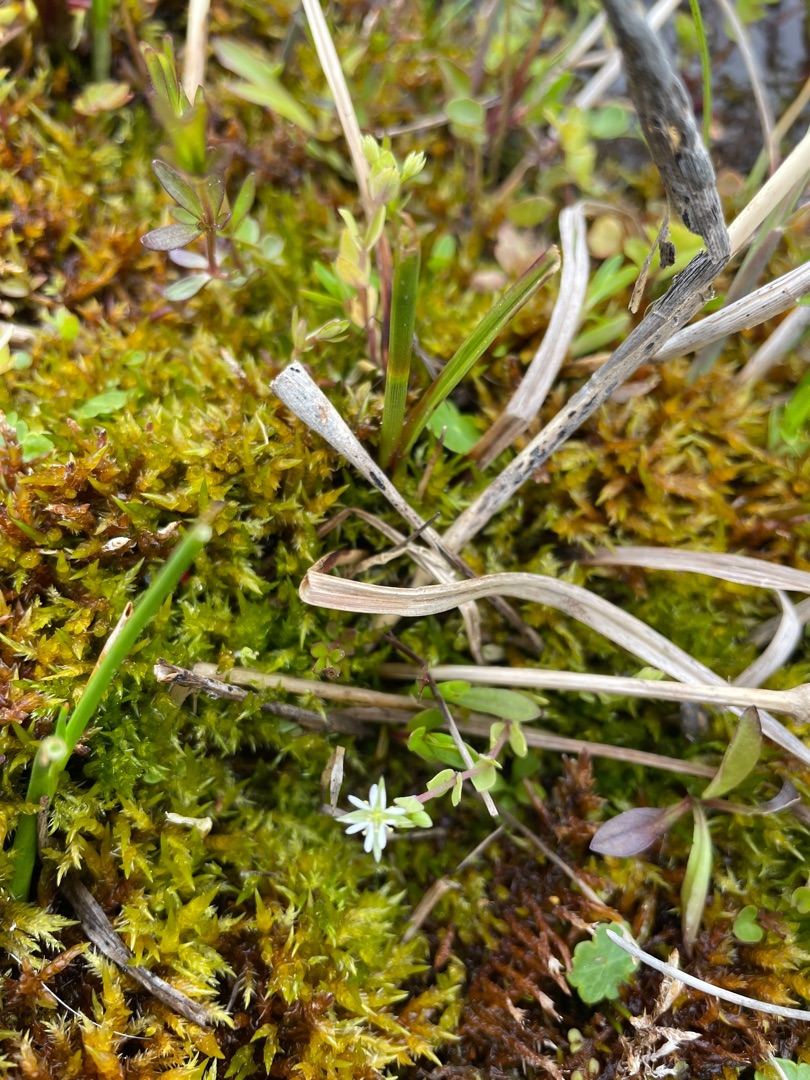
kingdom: Plantae
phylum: Tracheophyta
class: Magnoliopsida
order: Caryophyllales
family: Caryophyllaceae
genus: Stellaria
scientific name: Stellaria alsine
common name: Sump-fladstjerne
